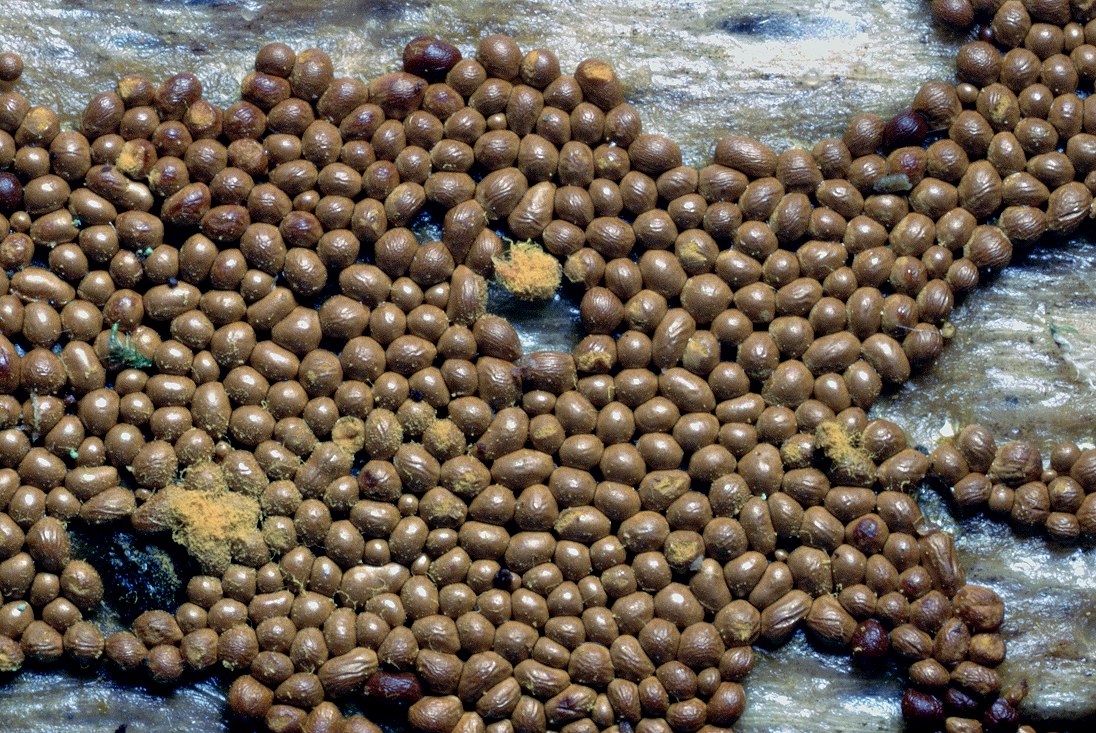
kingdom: Protozoa
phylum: Mycetozoa
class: Myxomycetes
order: Trichiales
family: Trichiaceae
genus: Trichia
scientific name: Trichia scabra
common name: tæppe-hårbold
